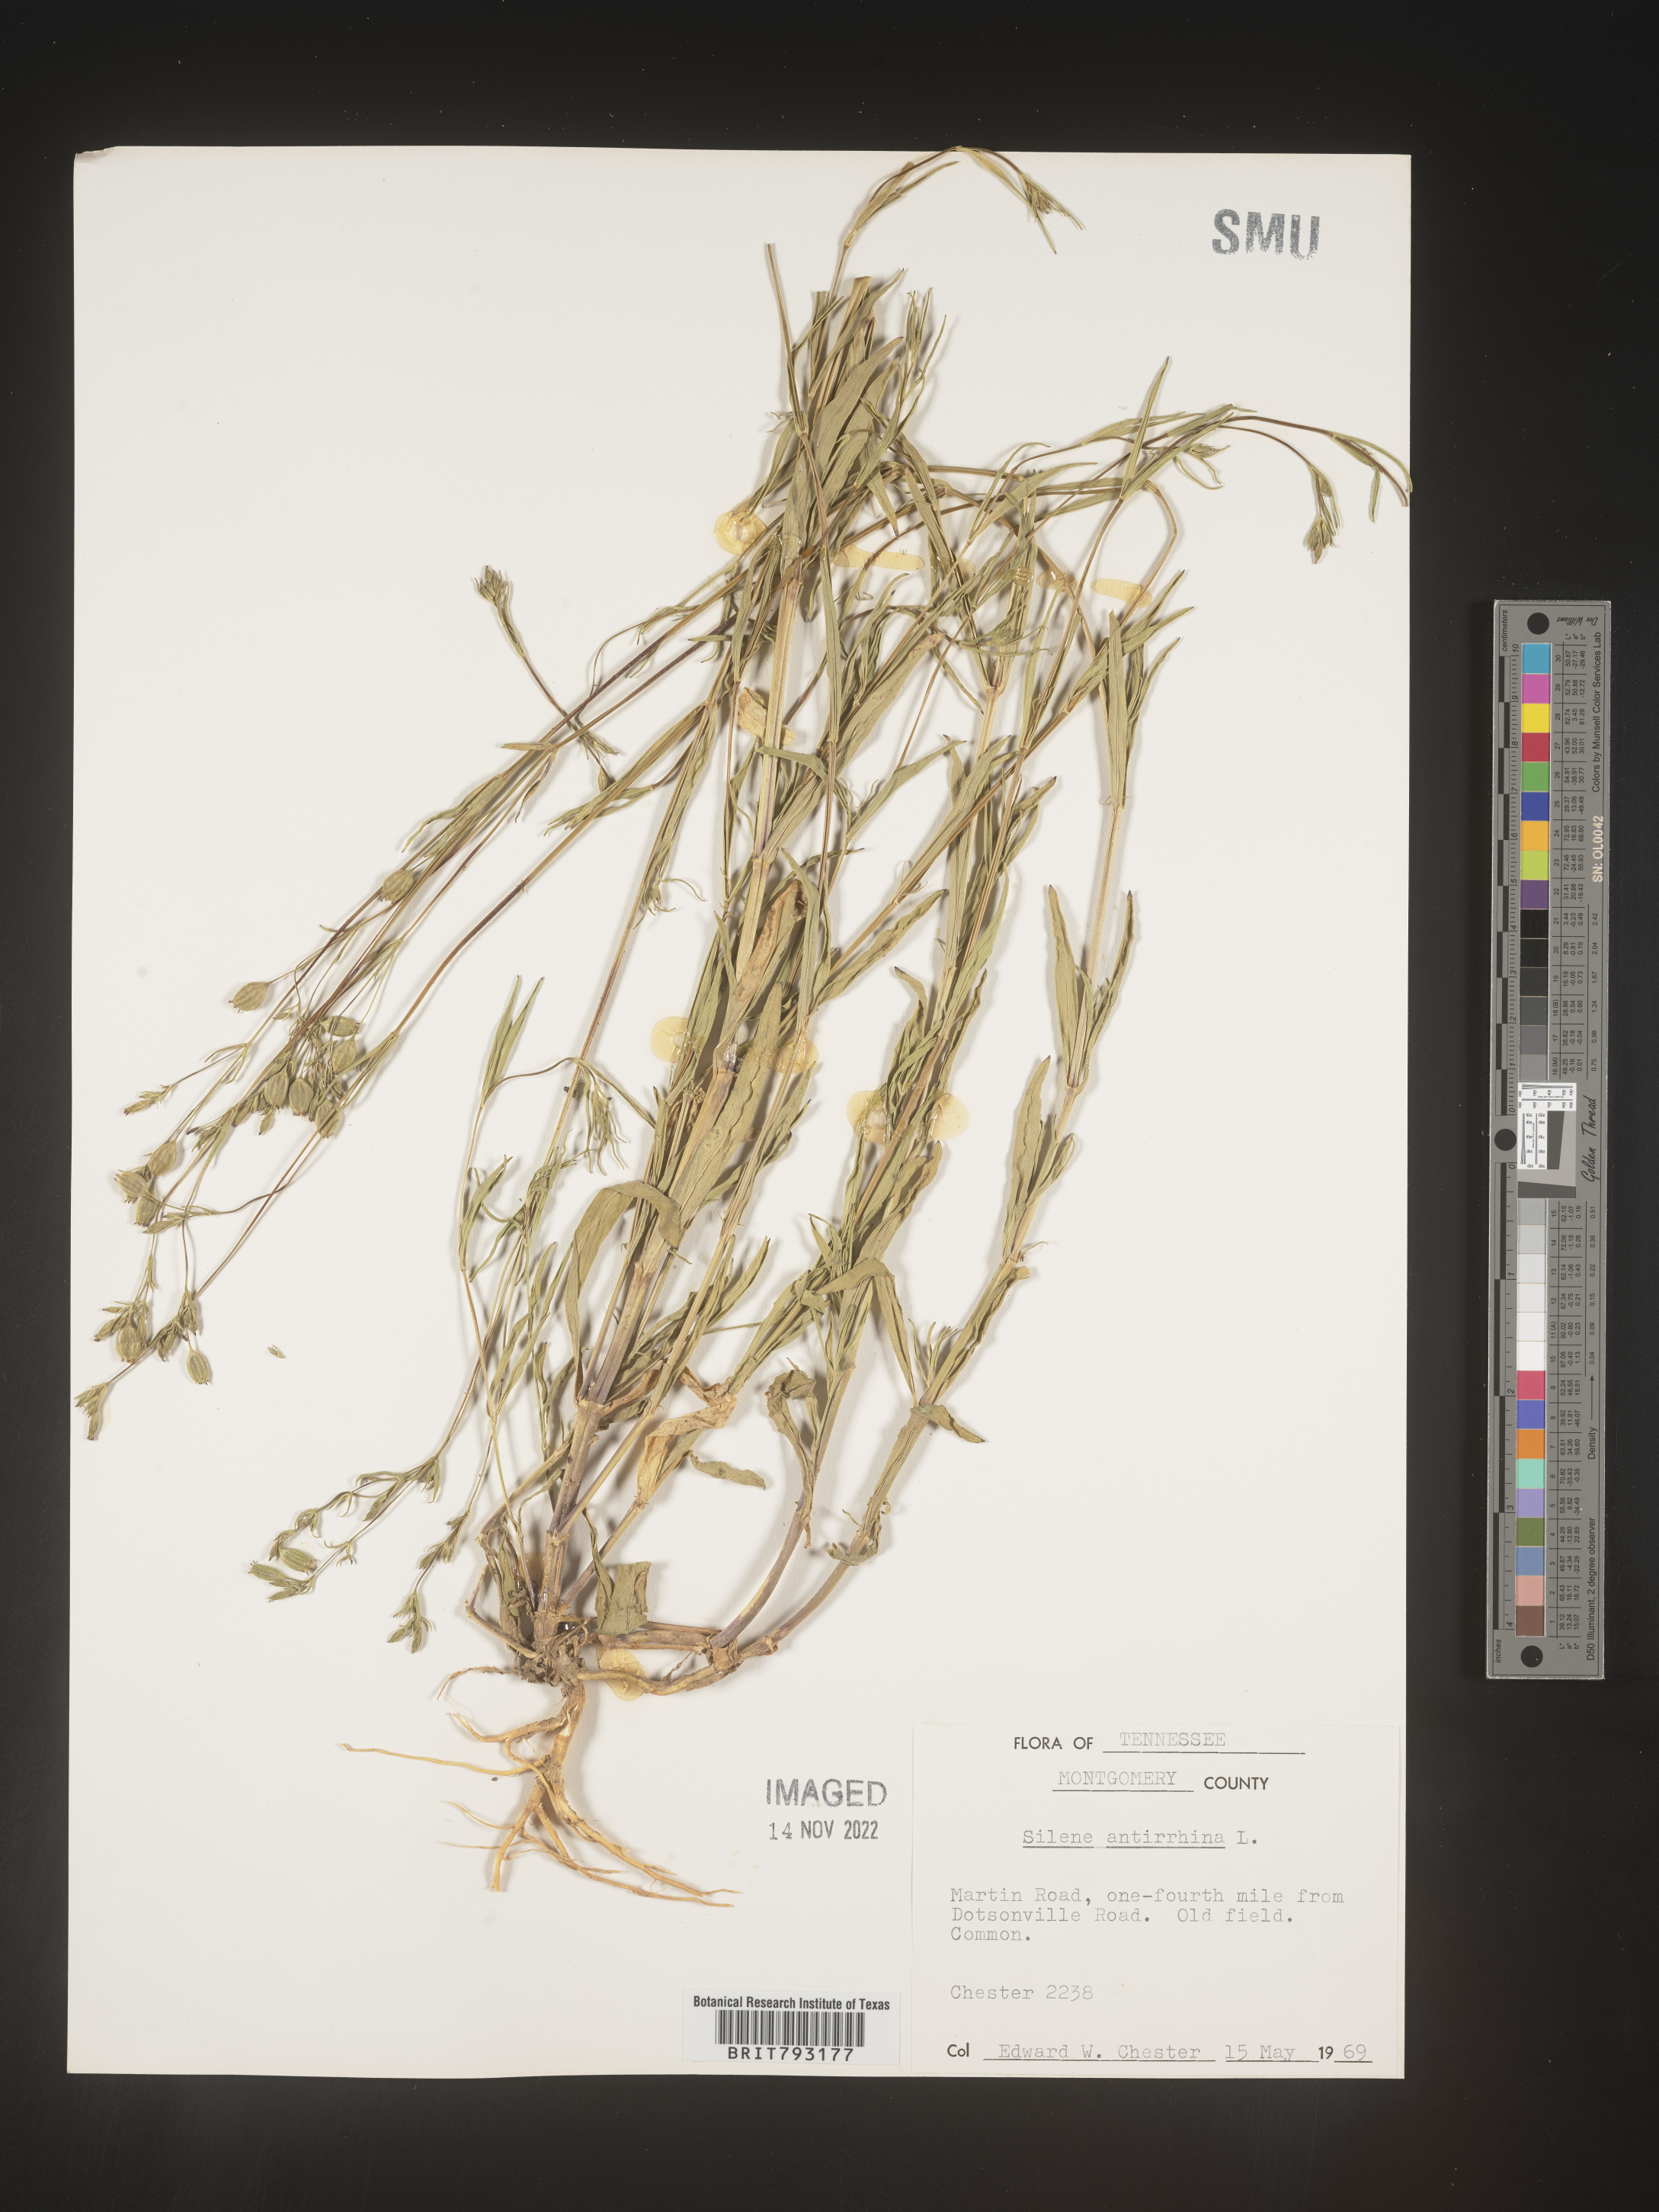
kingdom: Plantae
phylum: Tracheophyta
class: Magnoliopsida
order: Caryophyllales
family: Caryophyllaceae
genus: Silene
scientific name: Silene antirrhina
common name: Sleepy catchfly
